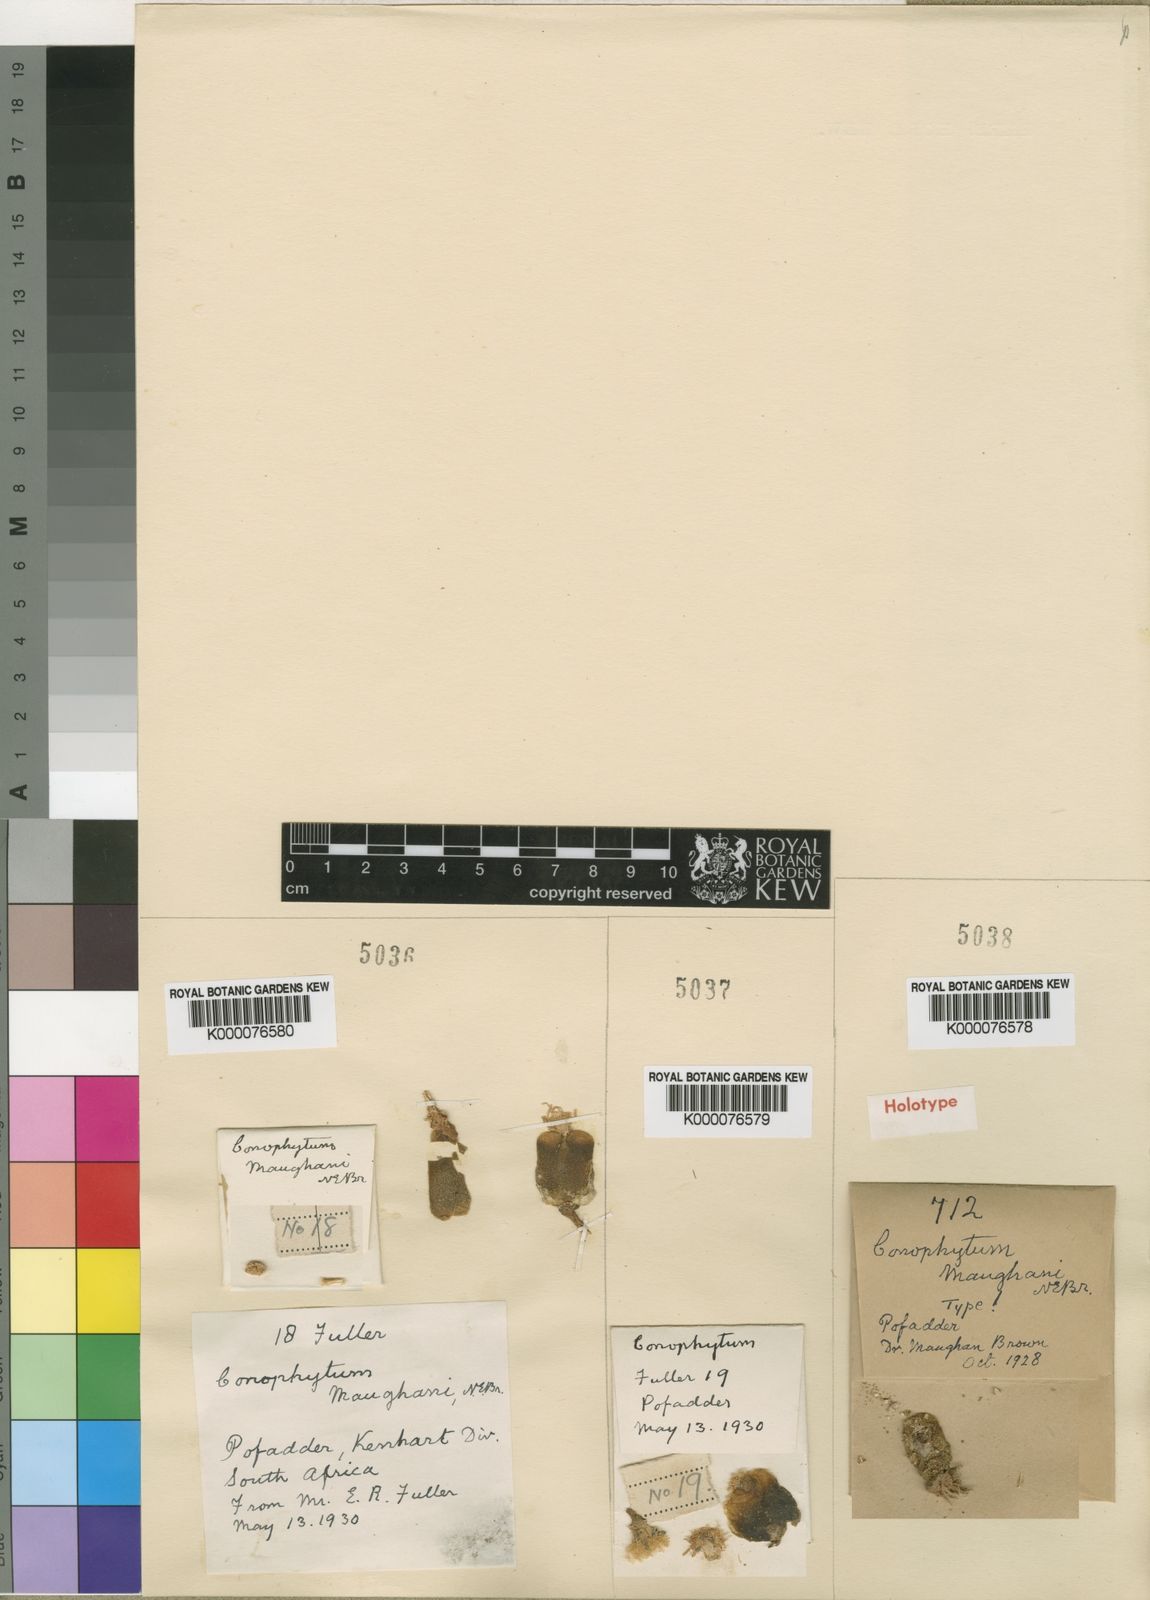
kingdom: Plantae
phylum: Tracheophyta
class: Magnoliopsida
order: Caryophyllales
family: Aizoaceae
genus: Conophytum
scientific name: Conophytum maughanii
